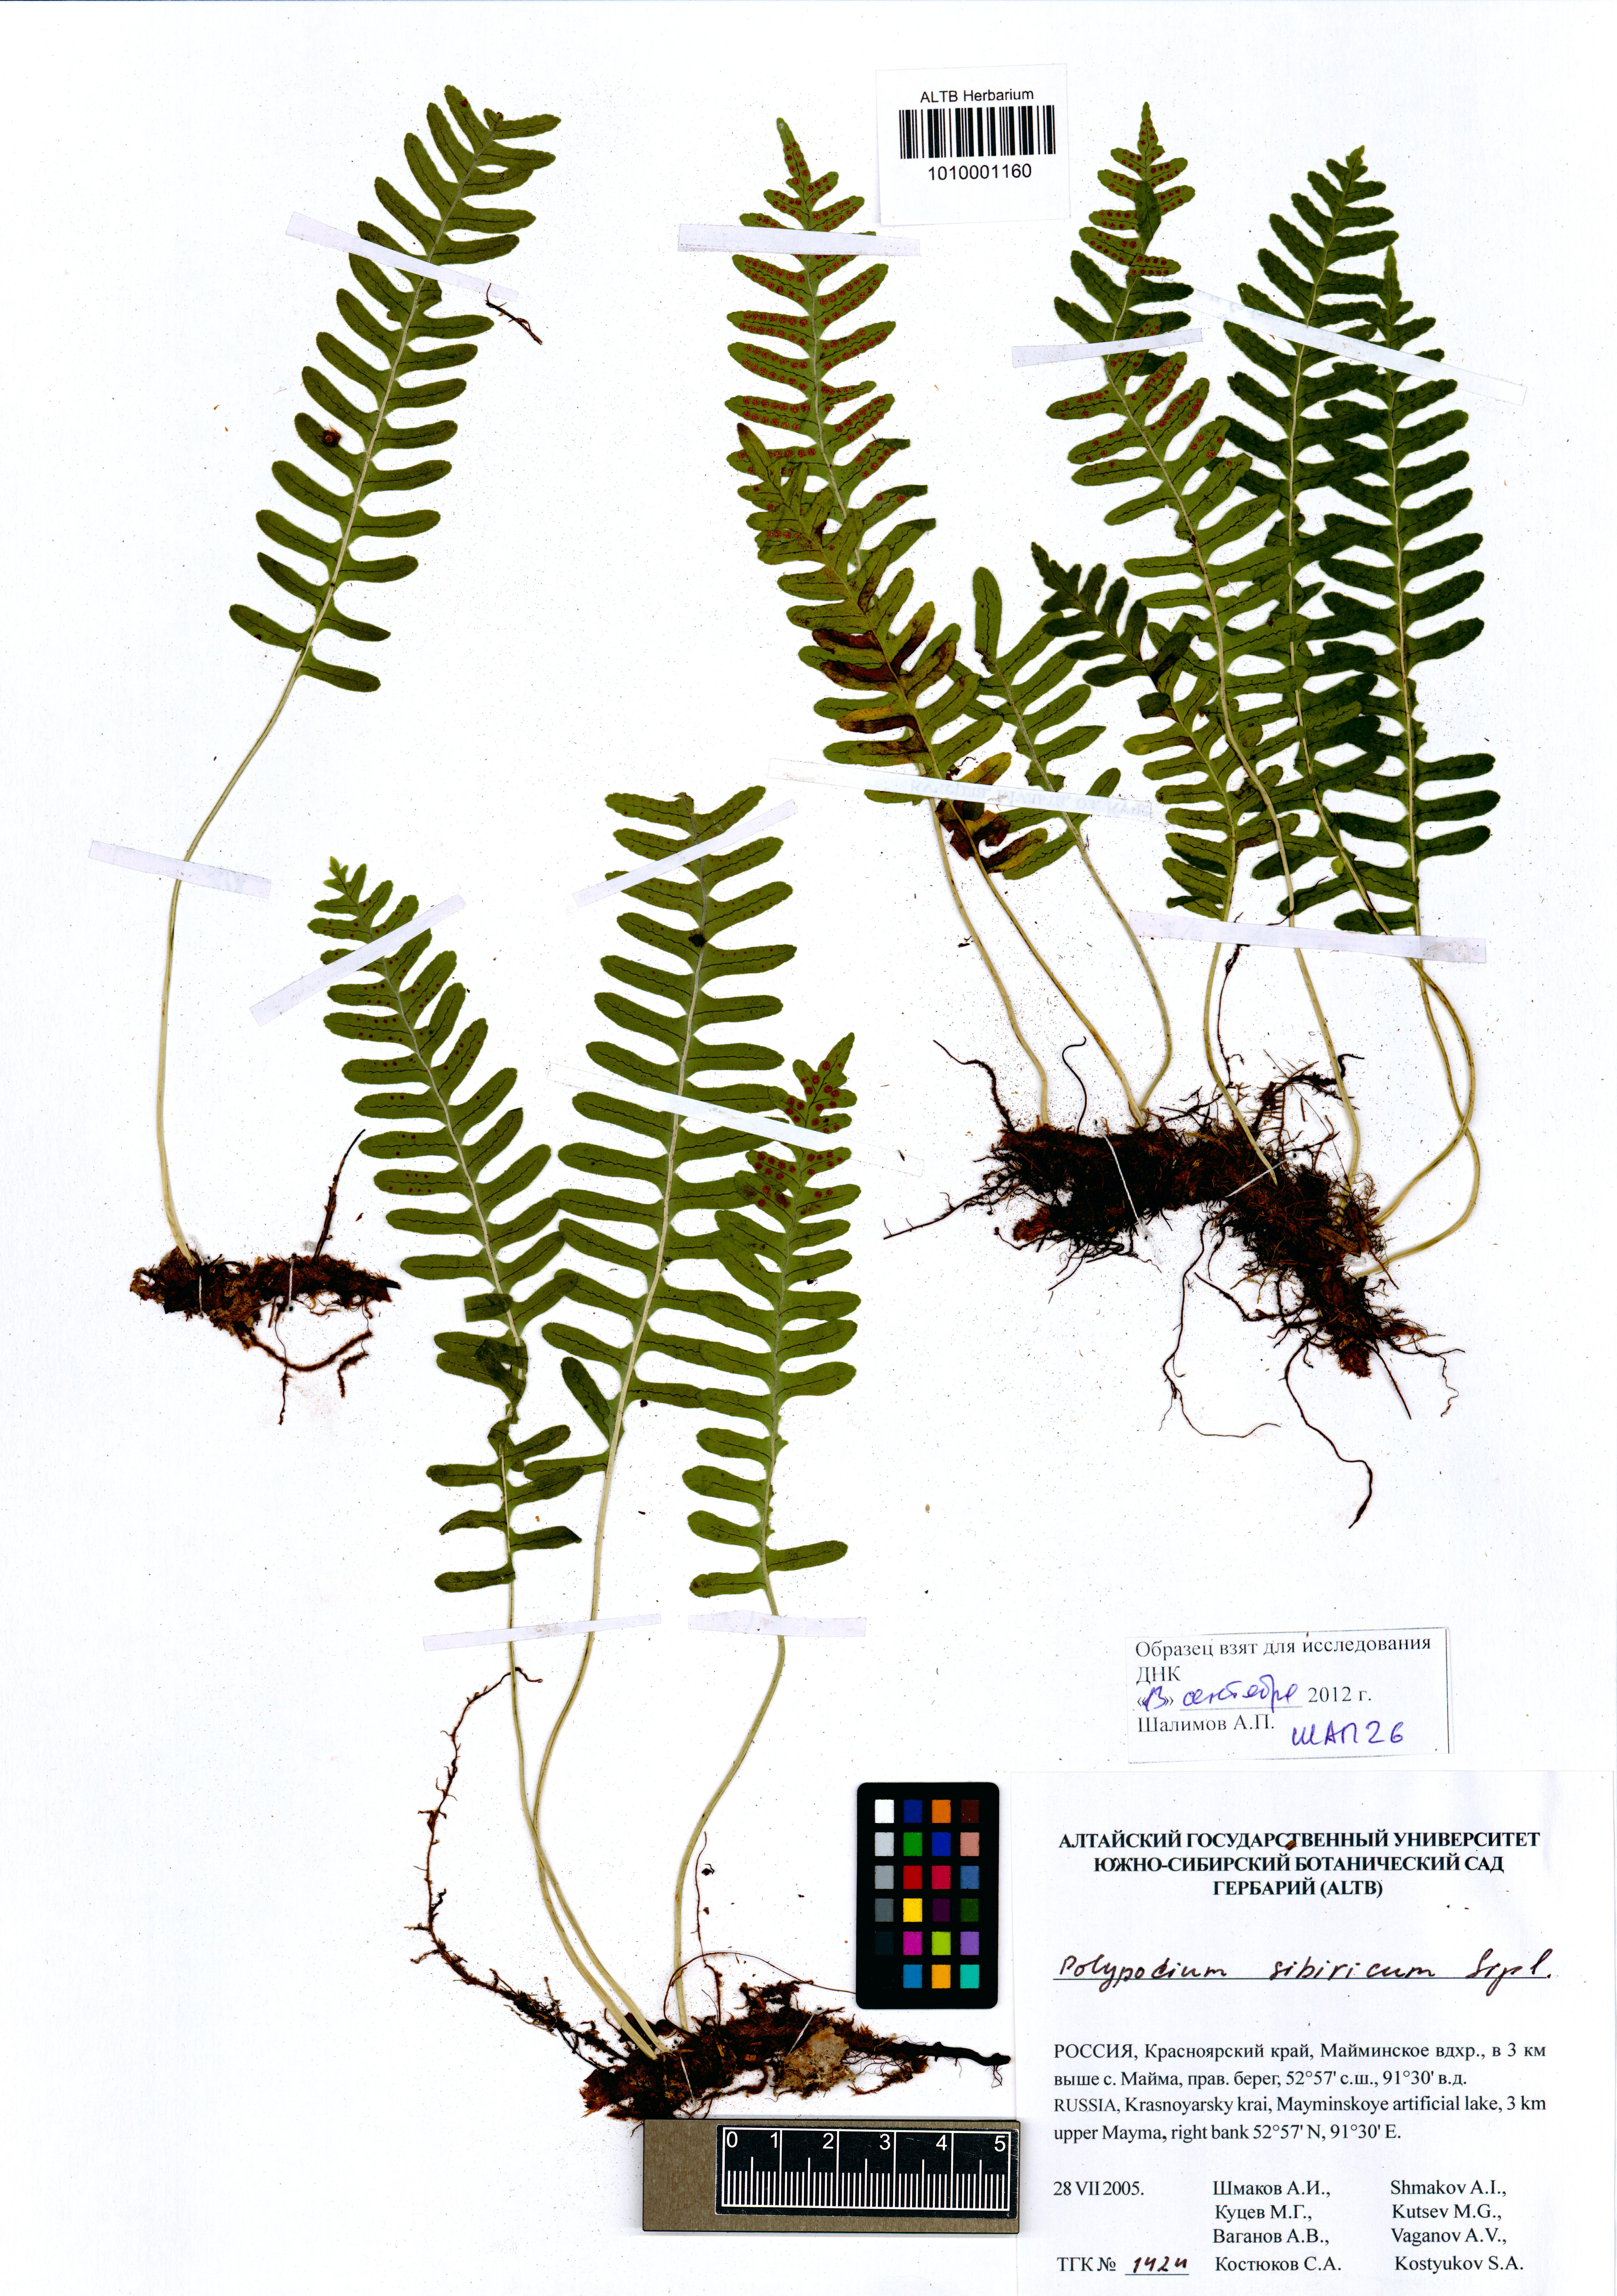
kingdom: Plantae
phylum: Tracheophyta
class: Polypodiopsida
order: Polypodiales
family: Polypodiaceae
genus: Polypodium
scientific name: Polypodium sibiricum
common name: Siberian polypody
